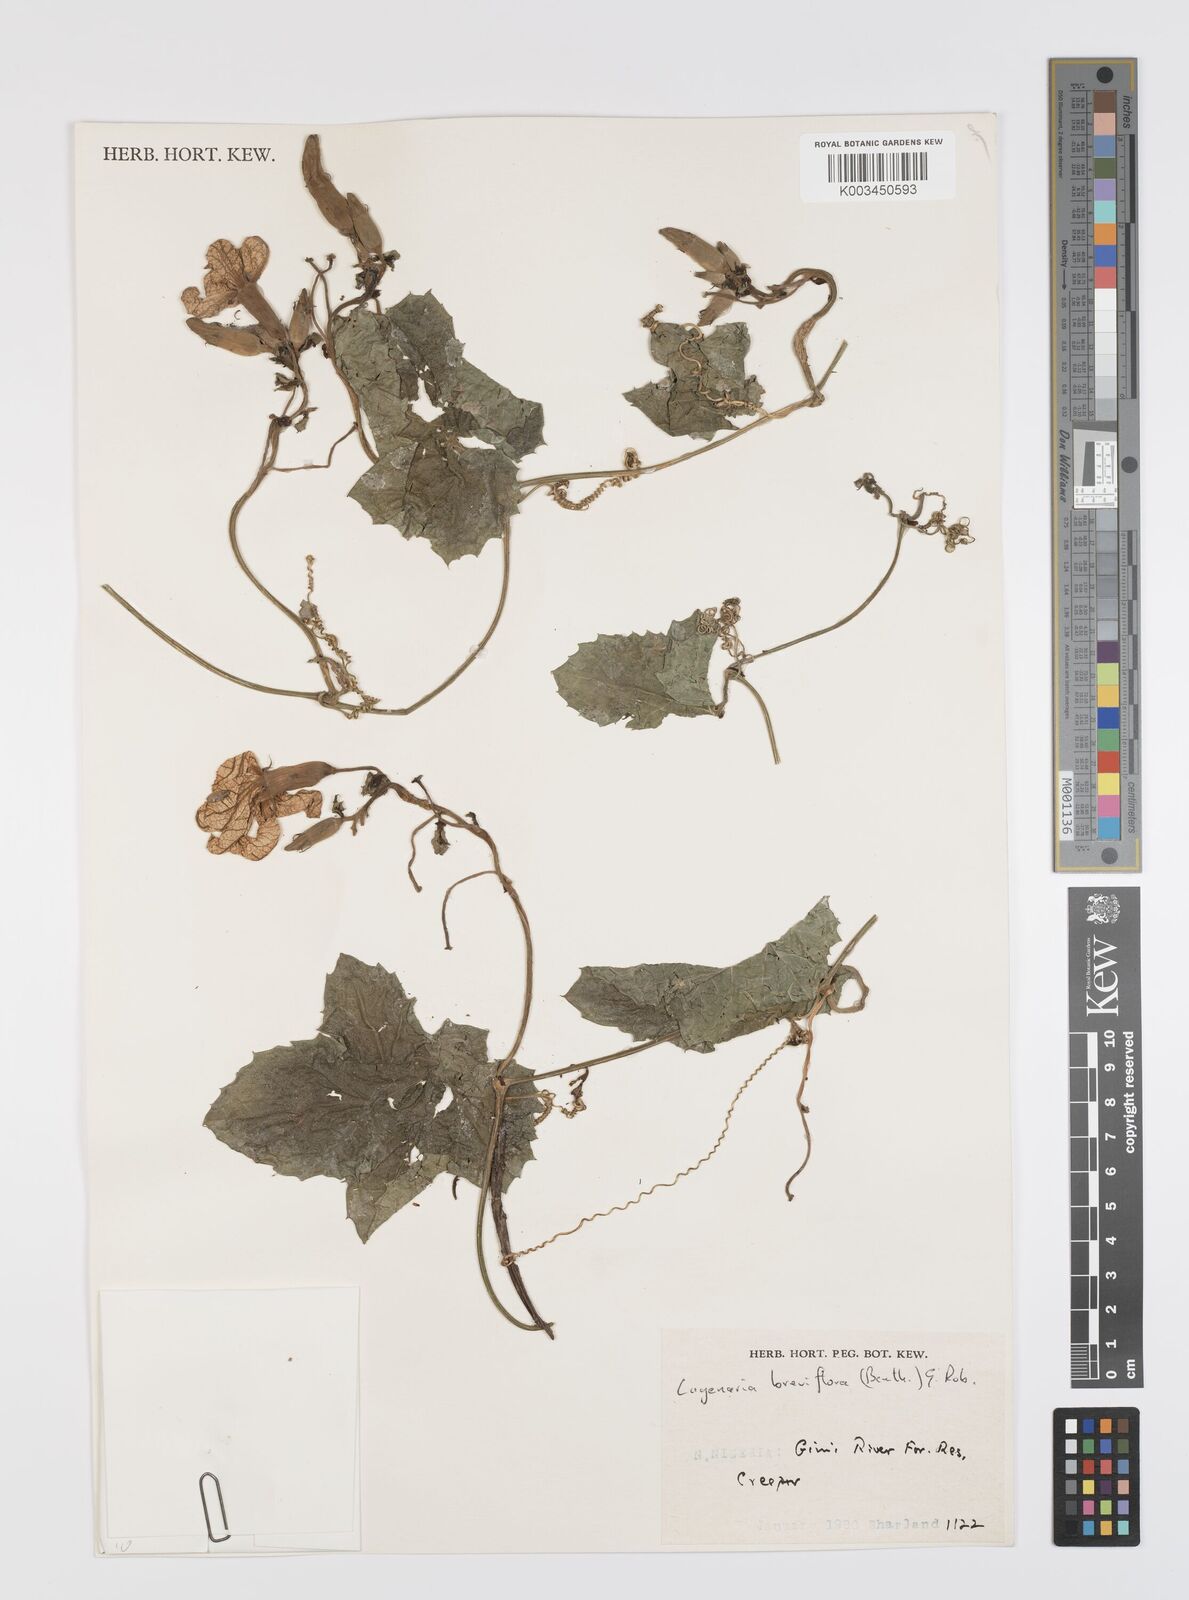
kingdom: Plantae
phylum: Tracheophyta
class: Magnoliopsida
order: Cucurbitales
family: Cucurbitaceae
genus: Lagenaria
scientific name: Lagenaria breviflora
